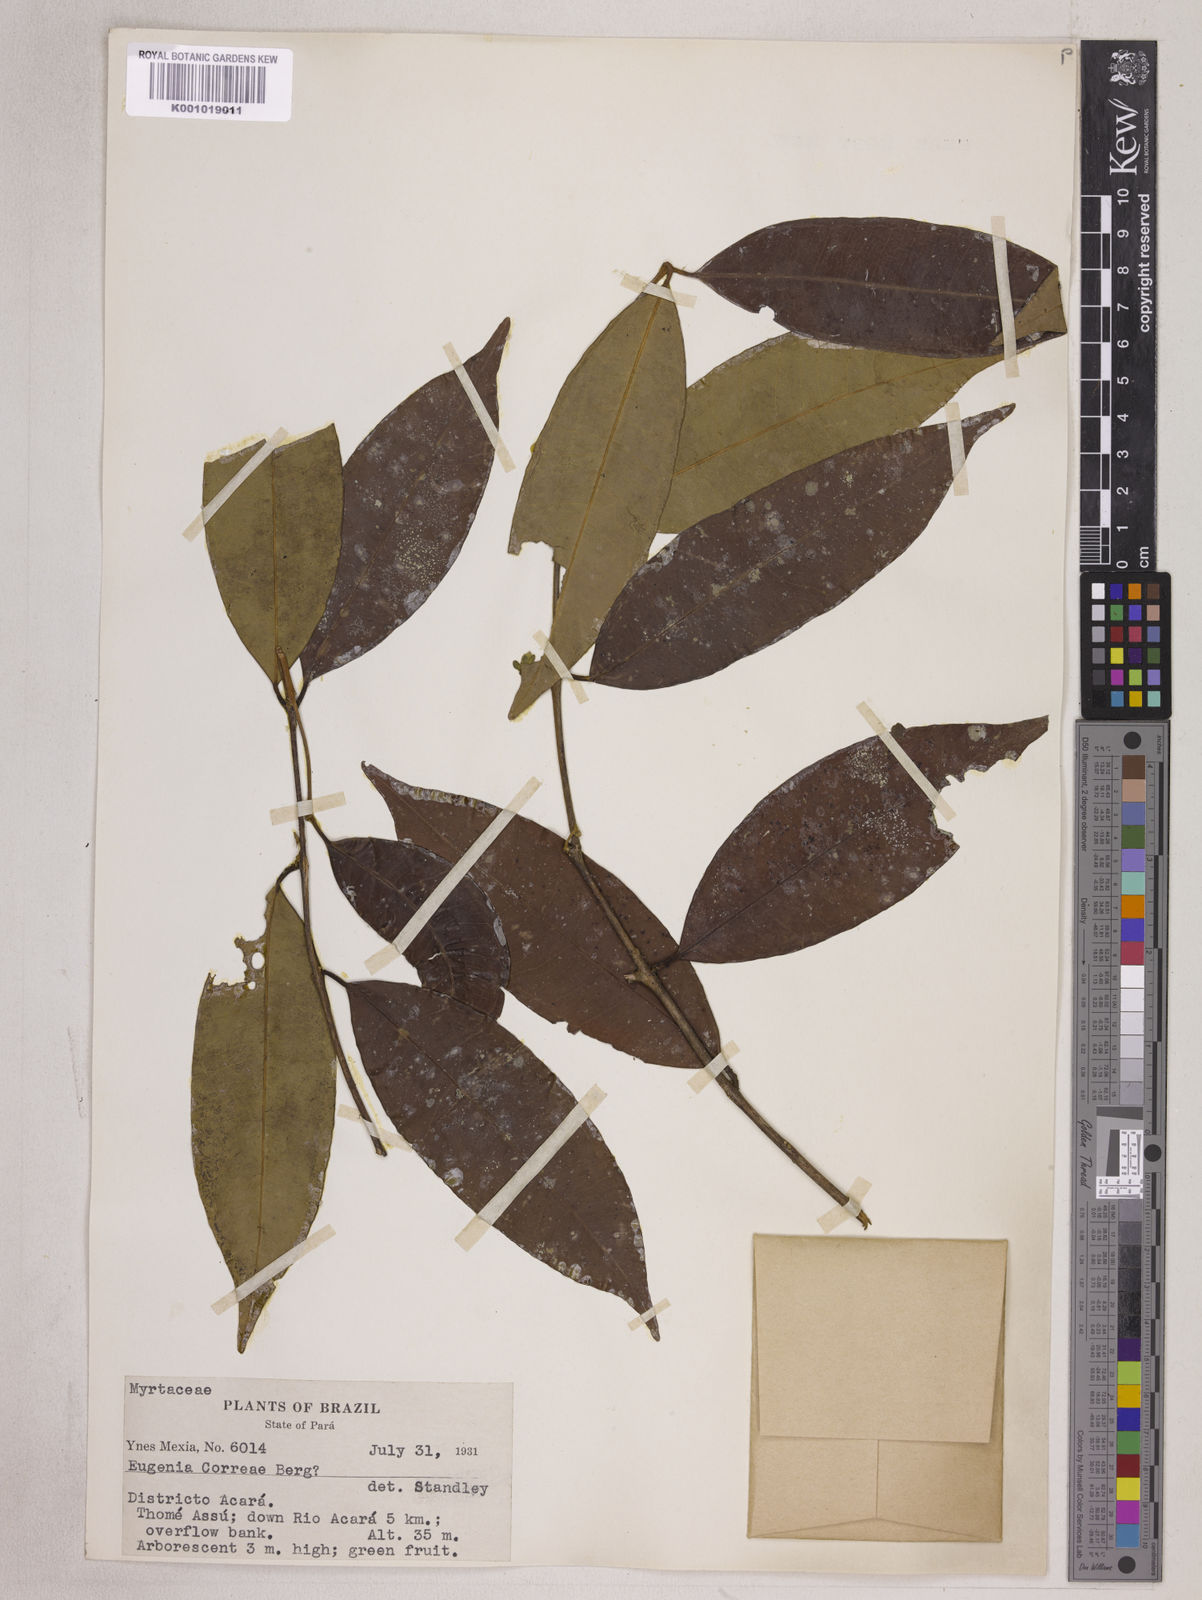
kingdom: Plantae
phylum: Tracheophyta
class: Magnoliopsida
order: Myrtales
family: Myrtaceae
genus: Eugenia
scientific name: Eugenia lambertiana
